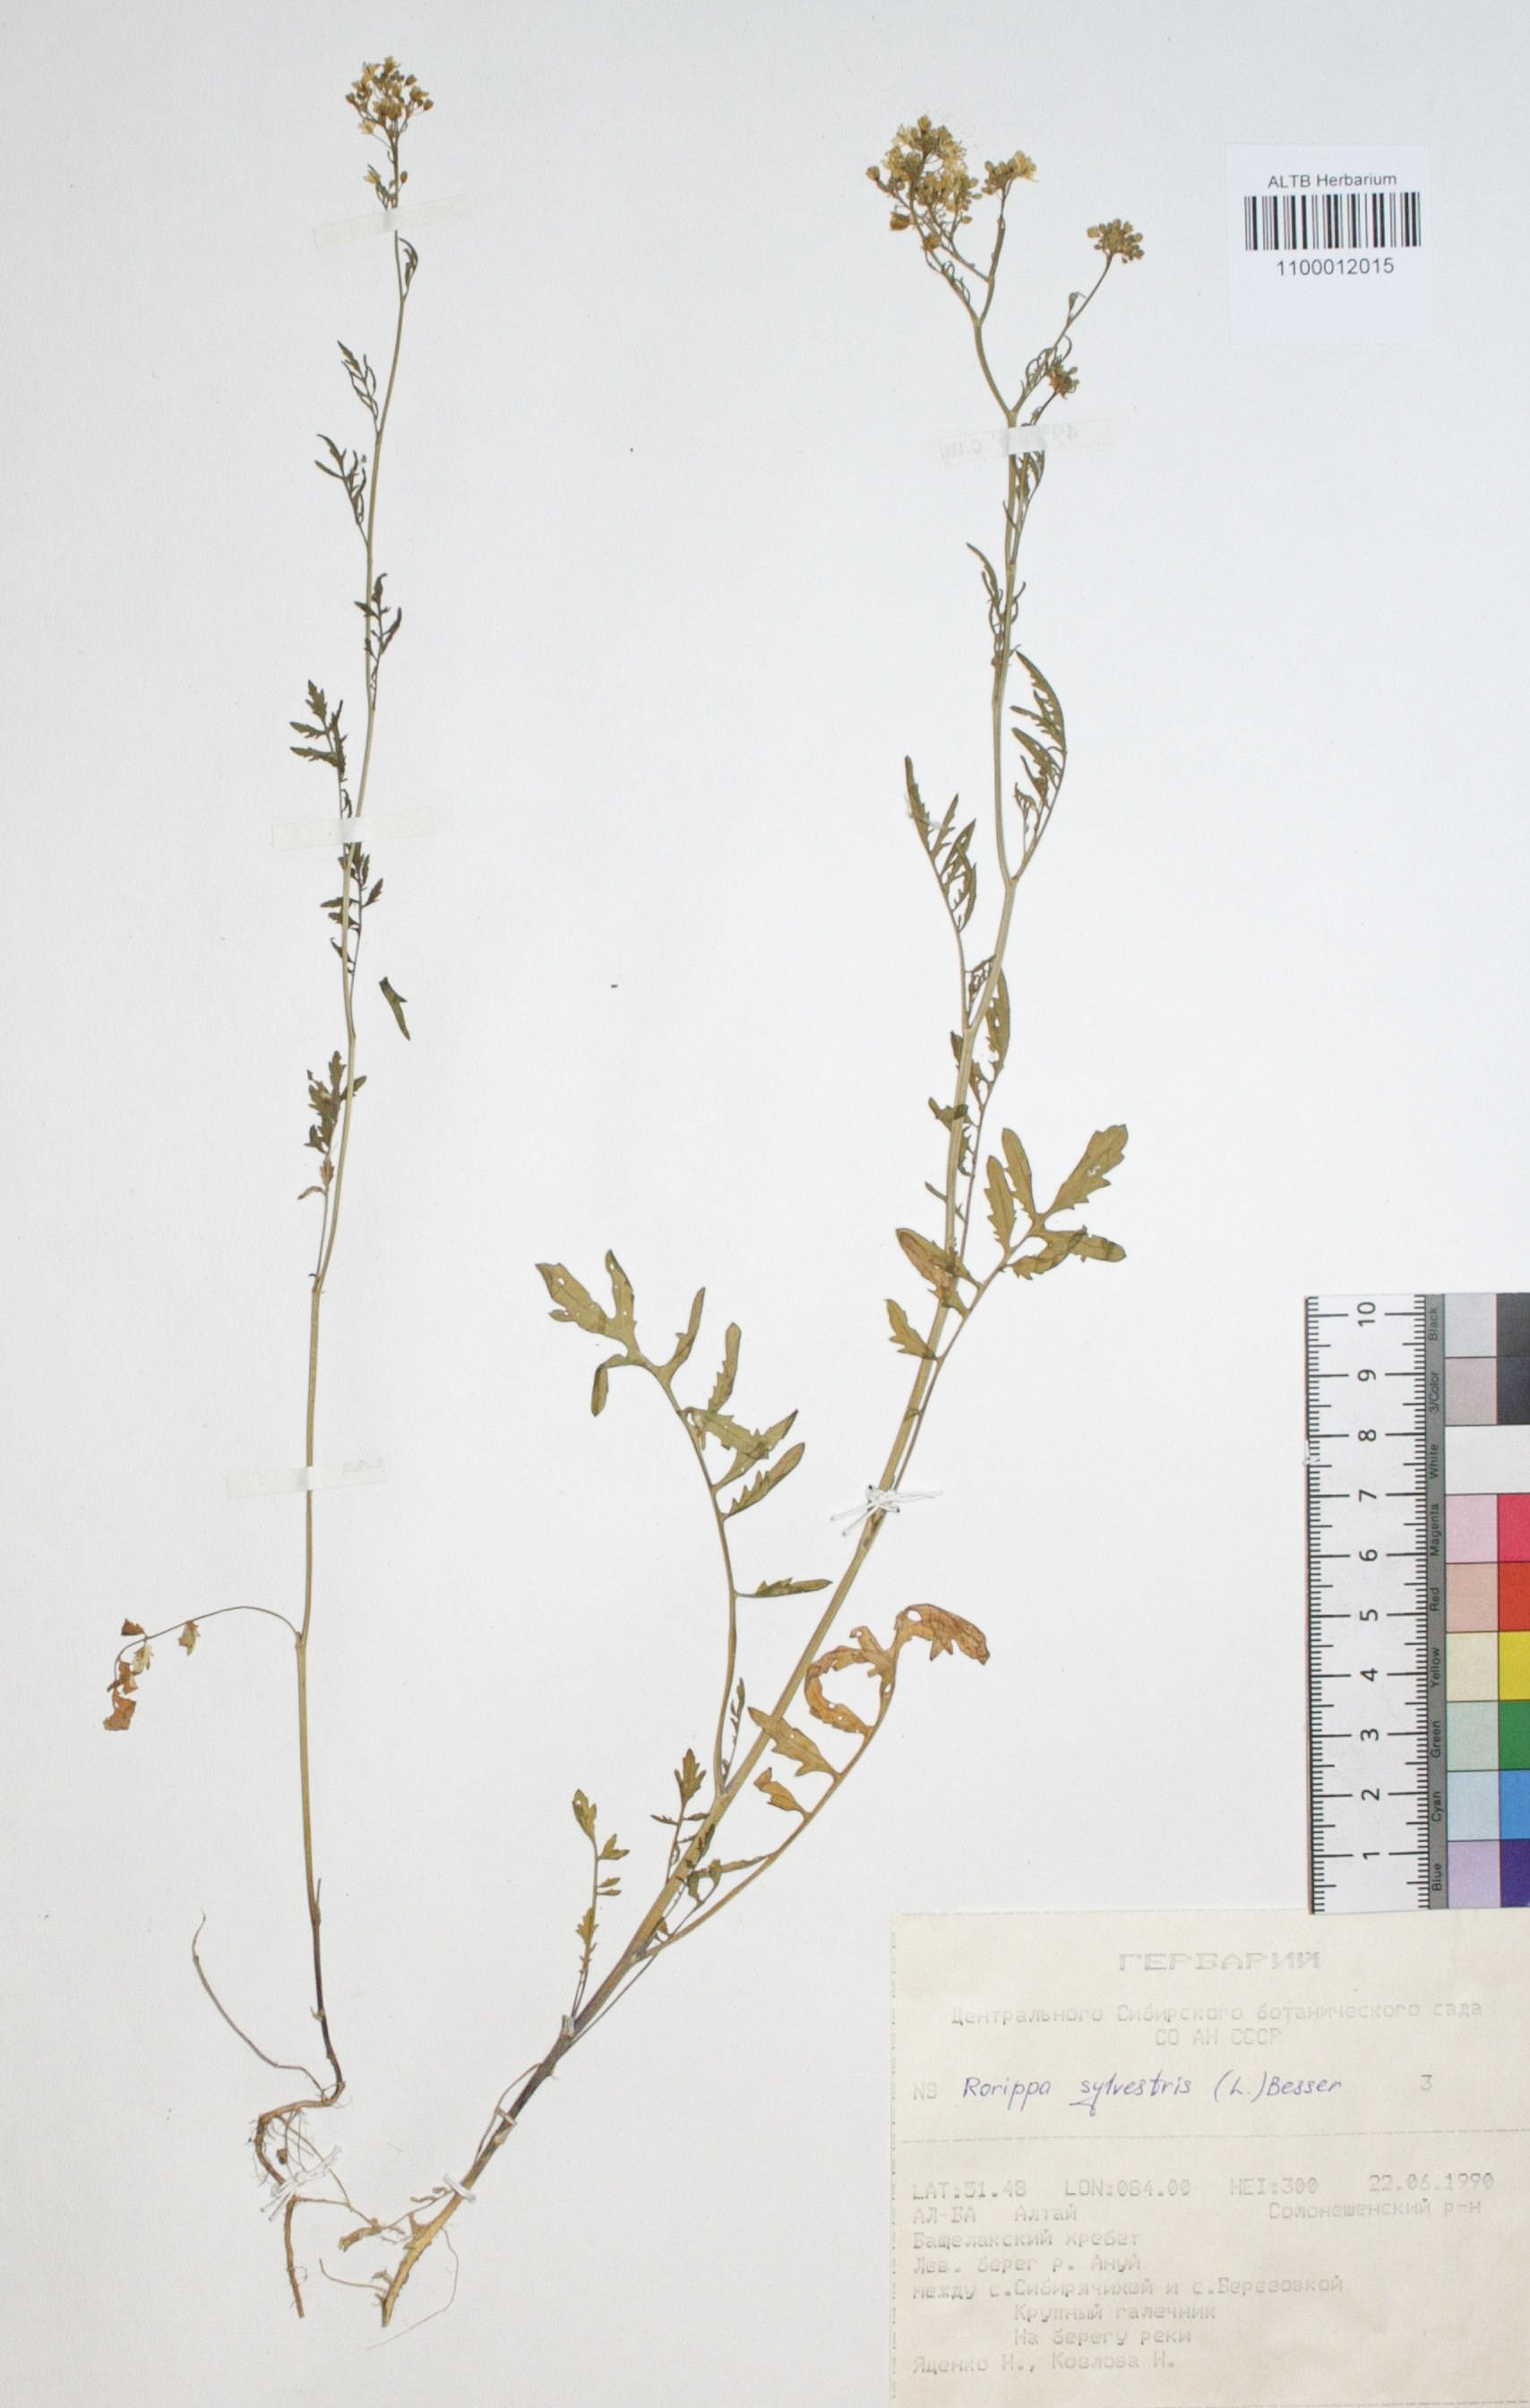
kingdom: Plantae
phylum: Tracheophyta
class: Magnoliopsida
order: Brassicales
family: Brassicaceae
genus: Rorippa
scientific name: Rorippa sylvestris
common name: Creeping yellowcress
